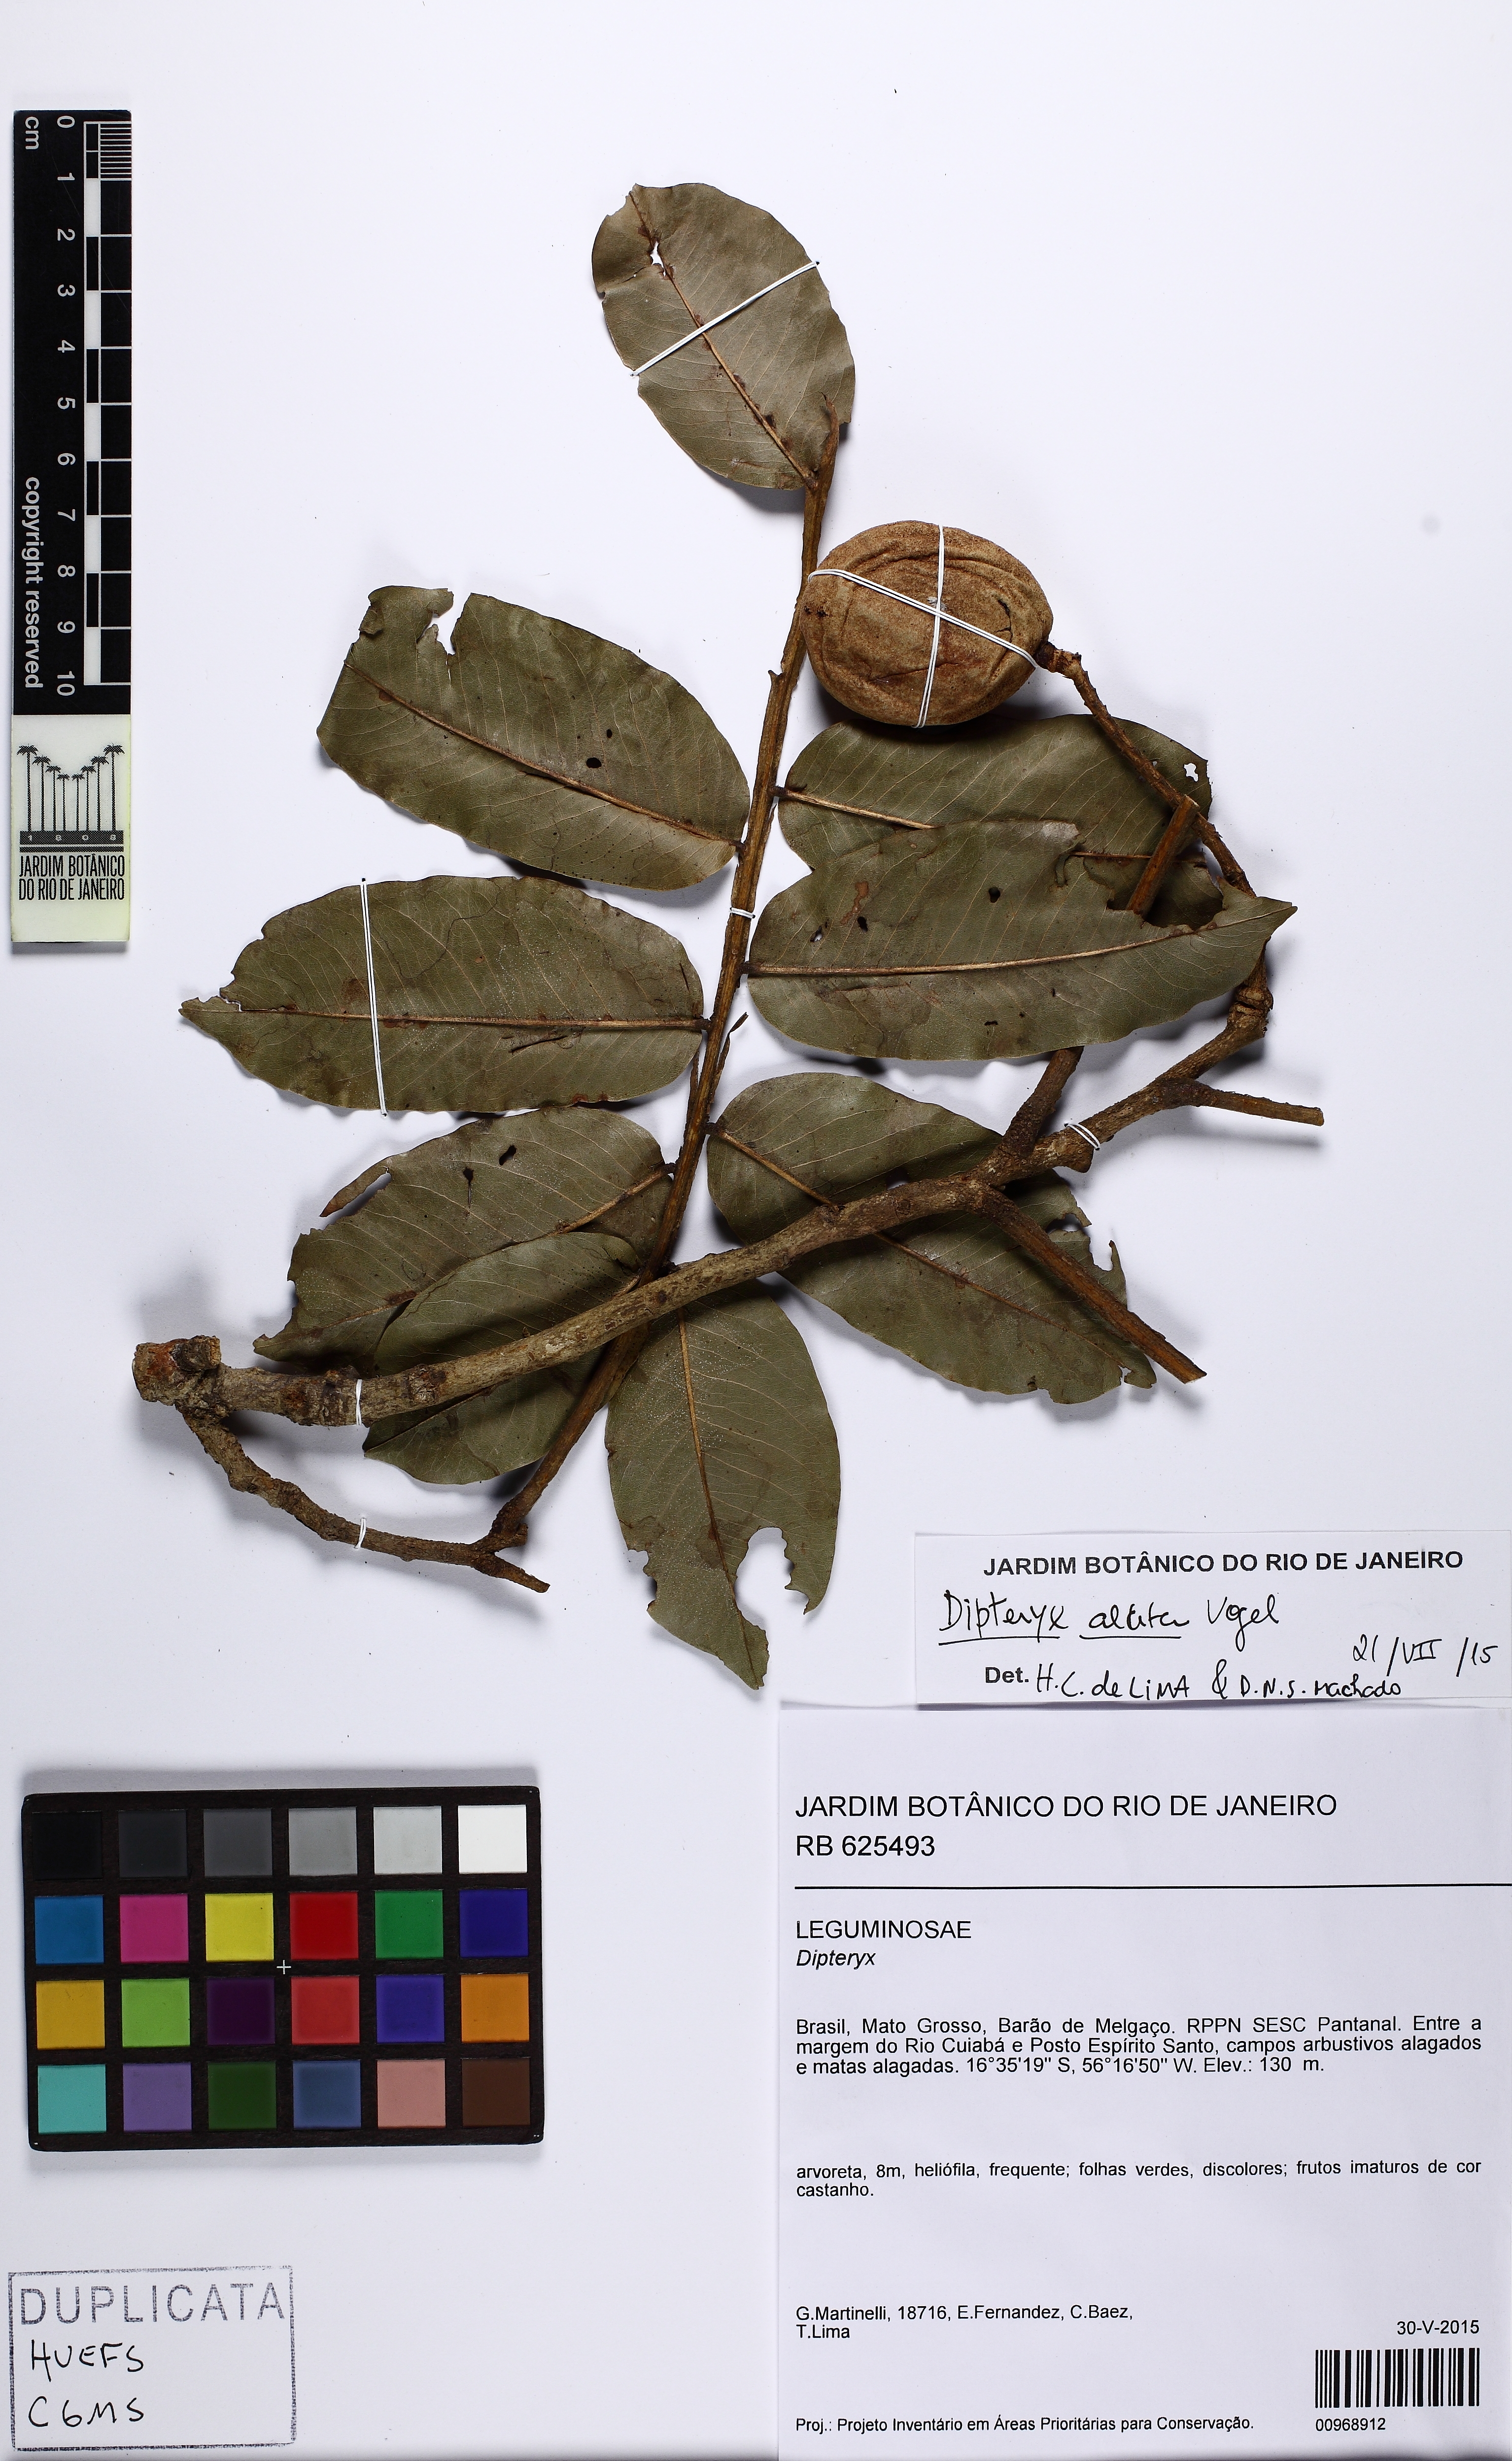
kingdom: Plantae
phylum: Tracheophyta
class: Magnoliopsida
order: Fabales
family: Fabaceae
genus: Dipteryx
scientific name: Dipteryx alata
